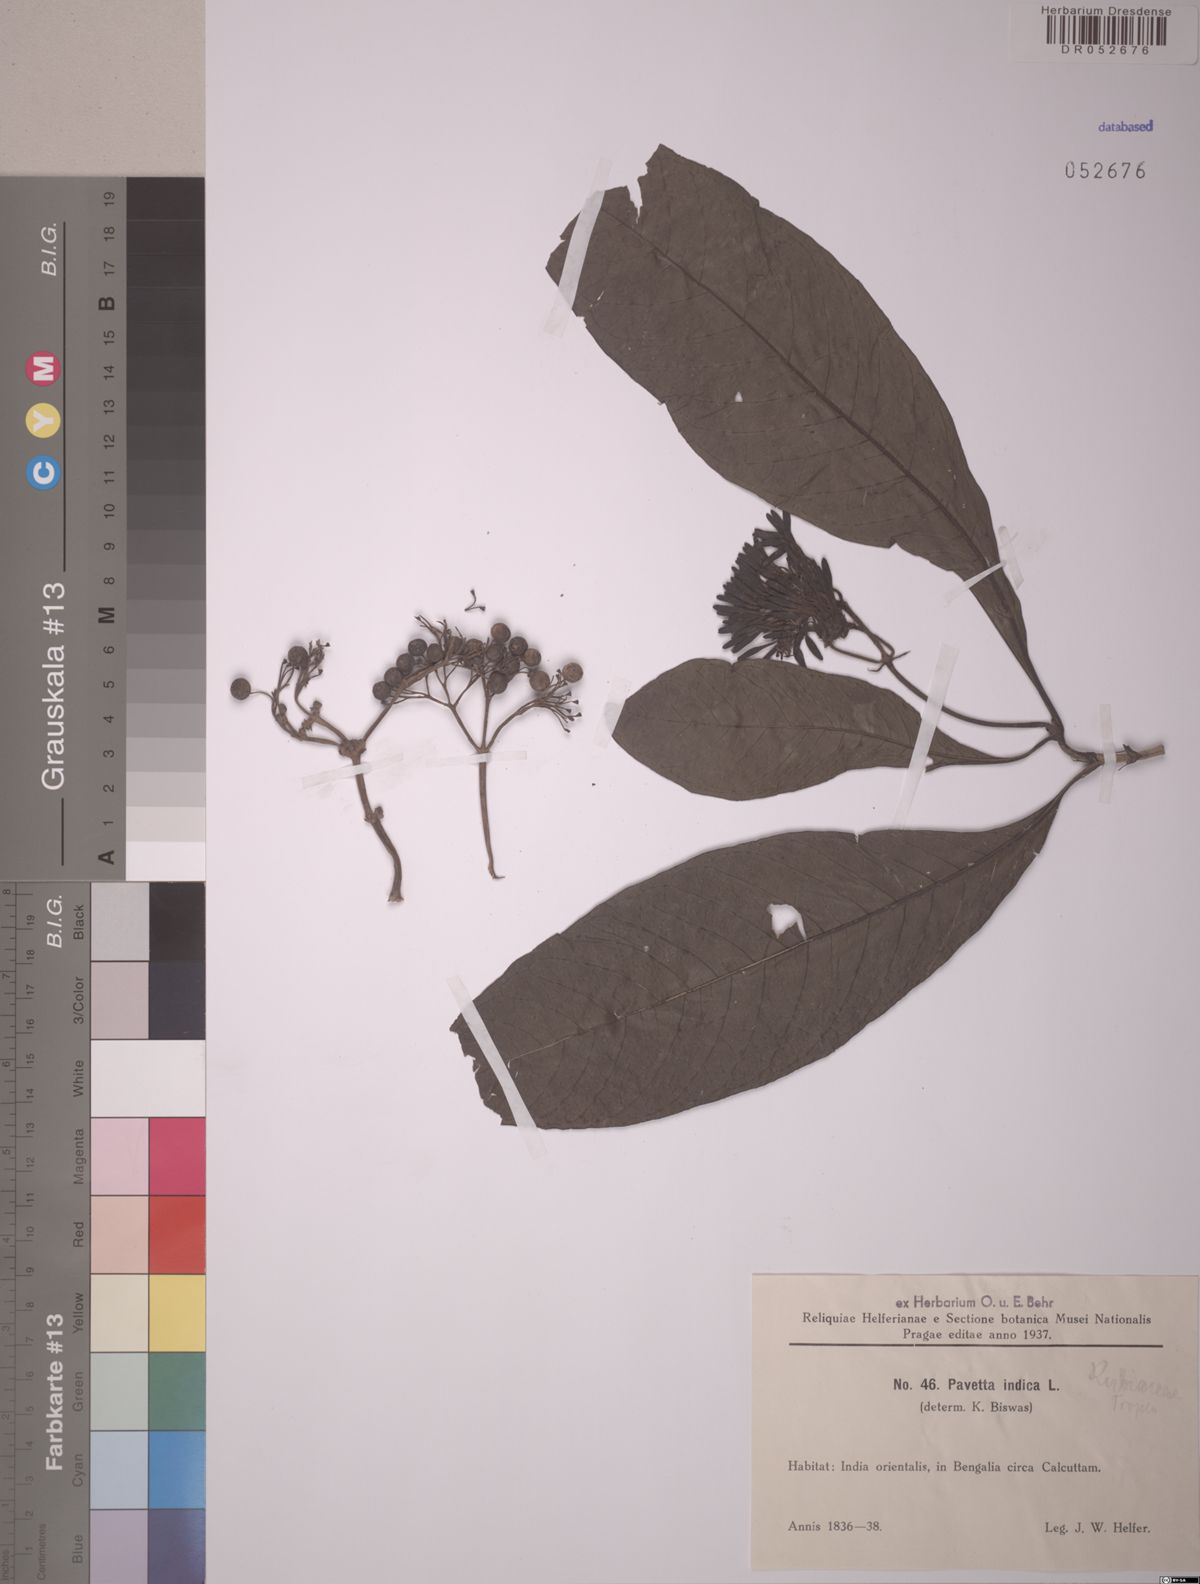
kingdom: Plantae
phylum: Tracheophyta
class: Magnoliopsida
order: Gentianales
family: Rubiaceae
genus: Pavetta
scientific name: Pavetta indica
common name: Indian pavetta
